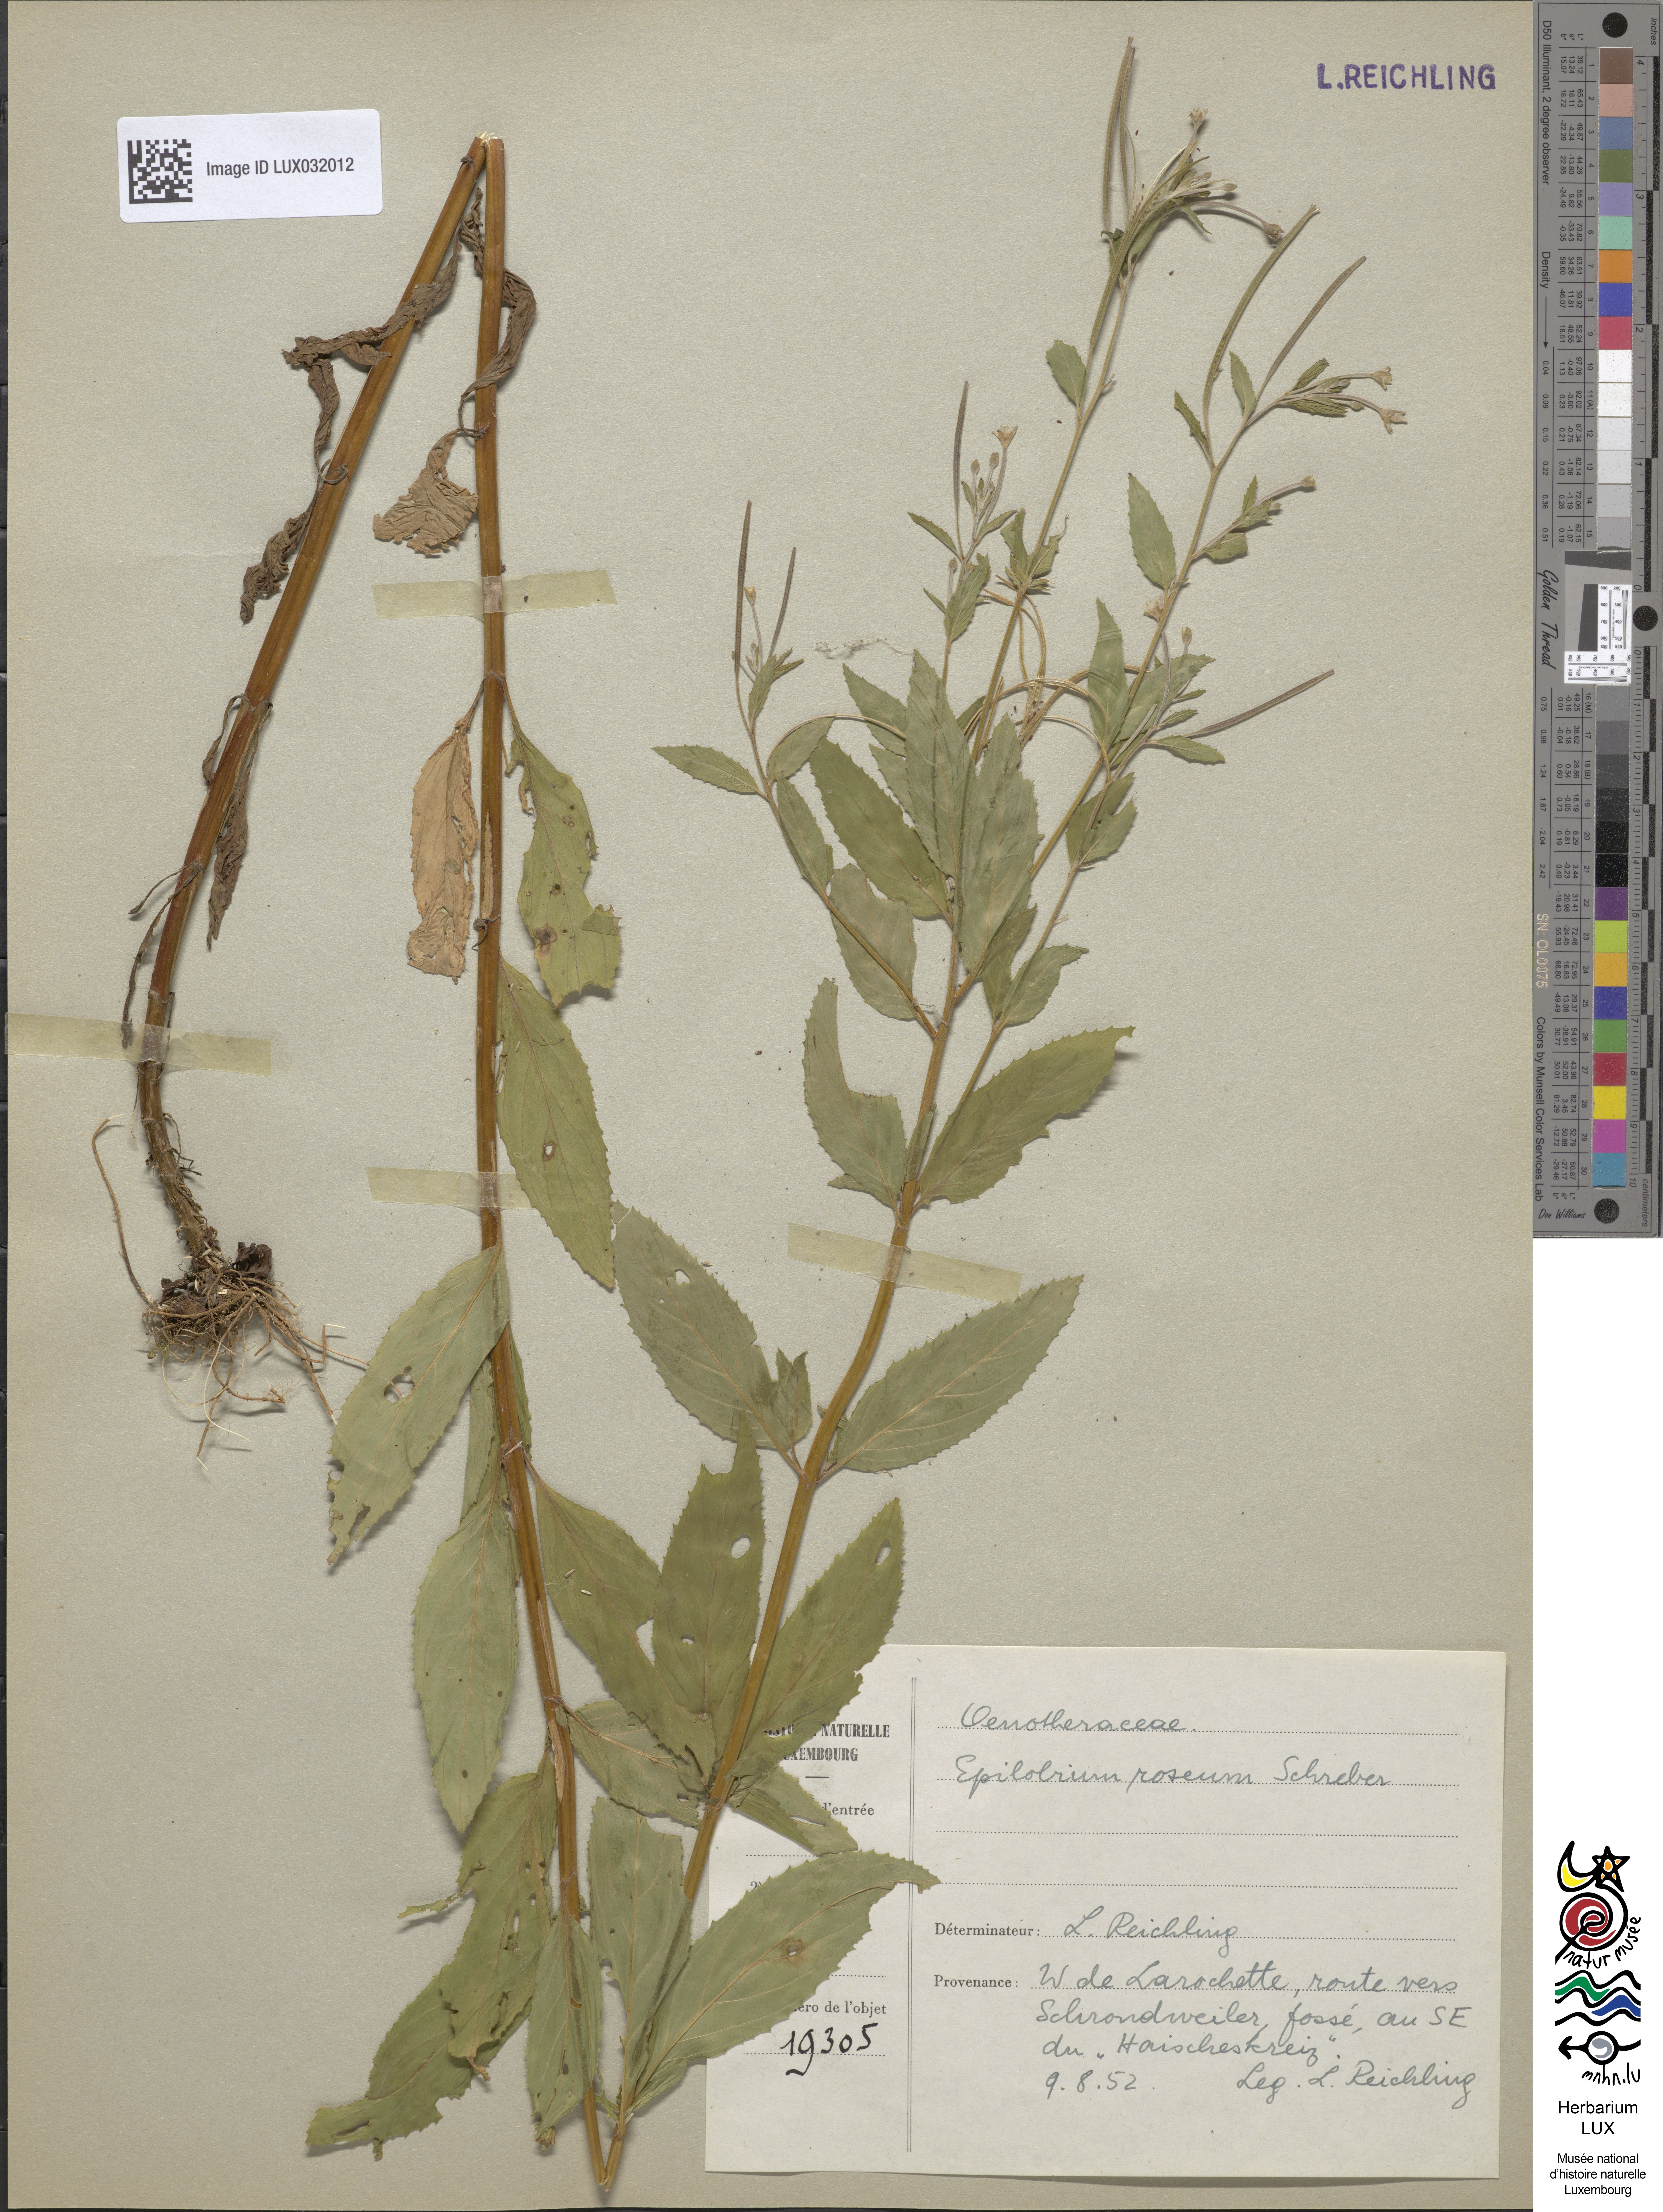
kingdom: Plantae
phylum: Tracheophyta
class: Magnoliopsida
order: Myrtales
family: Onagraceae
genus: Epilobium
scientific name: Epilobium roseum
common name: Pale willowherb
